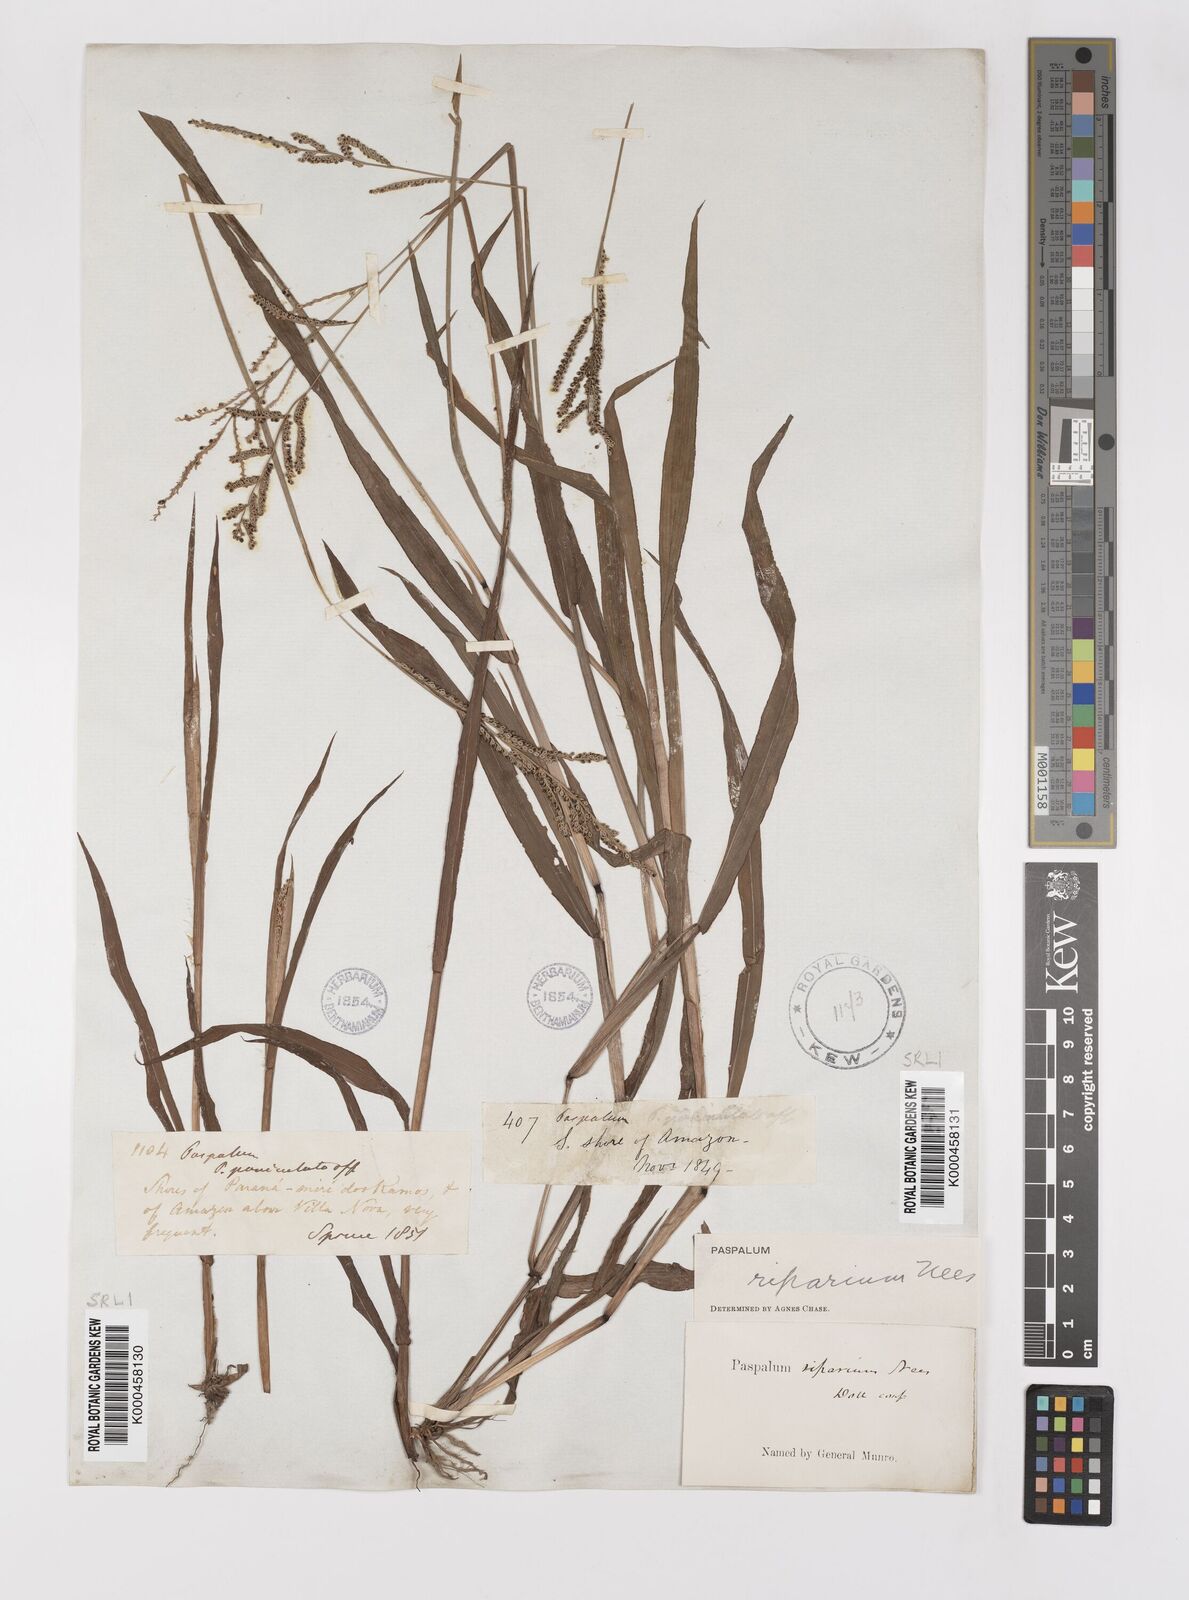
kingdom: Plantae
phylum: Tracheophyta
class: Liliopsida
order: Poales
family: Poaceae
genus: Paspalum
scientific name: Paspalum
